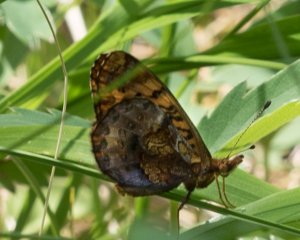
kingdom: Animalia
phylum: Arthropoda
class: Insecta
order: Lepidoptera
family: Nymphalidae
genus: Clossiana
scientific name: Clossiana toddi
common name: Meadow Fritillary
